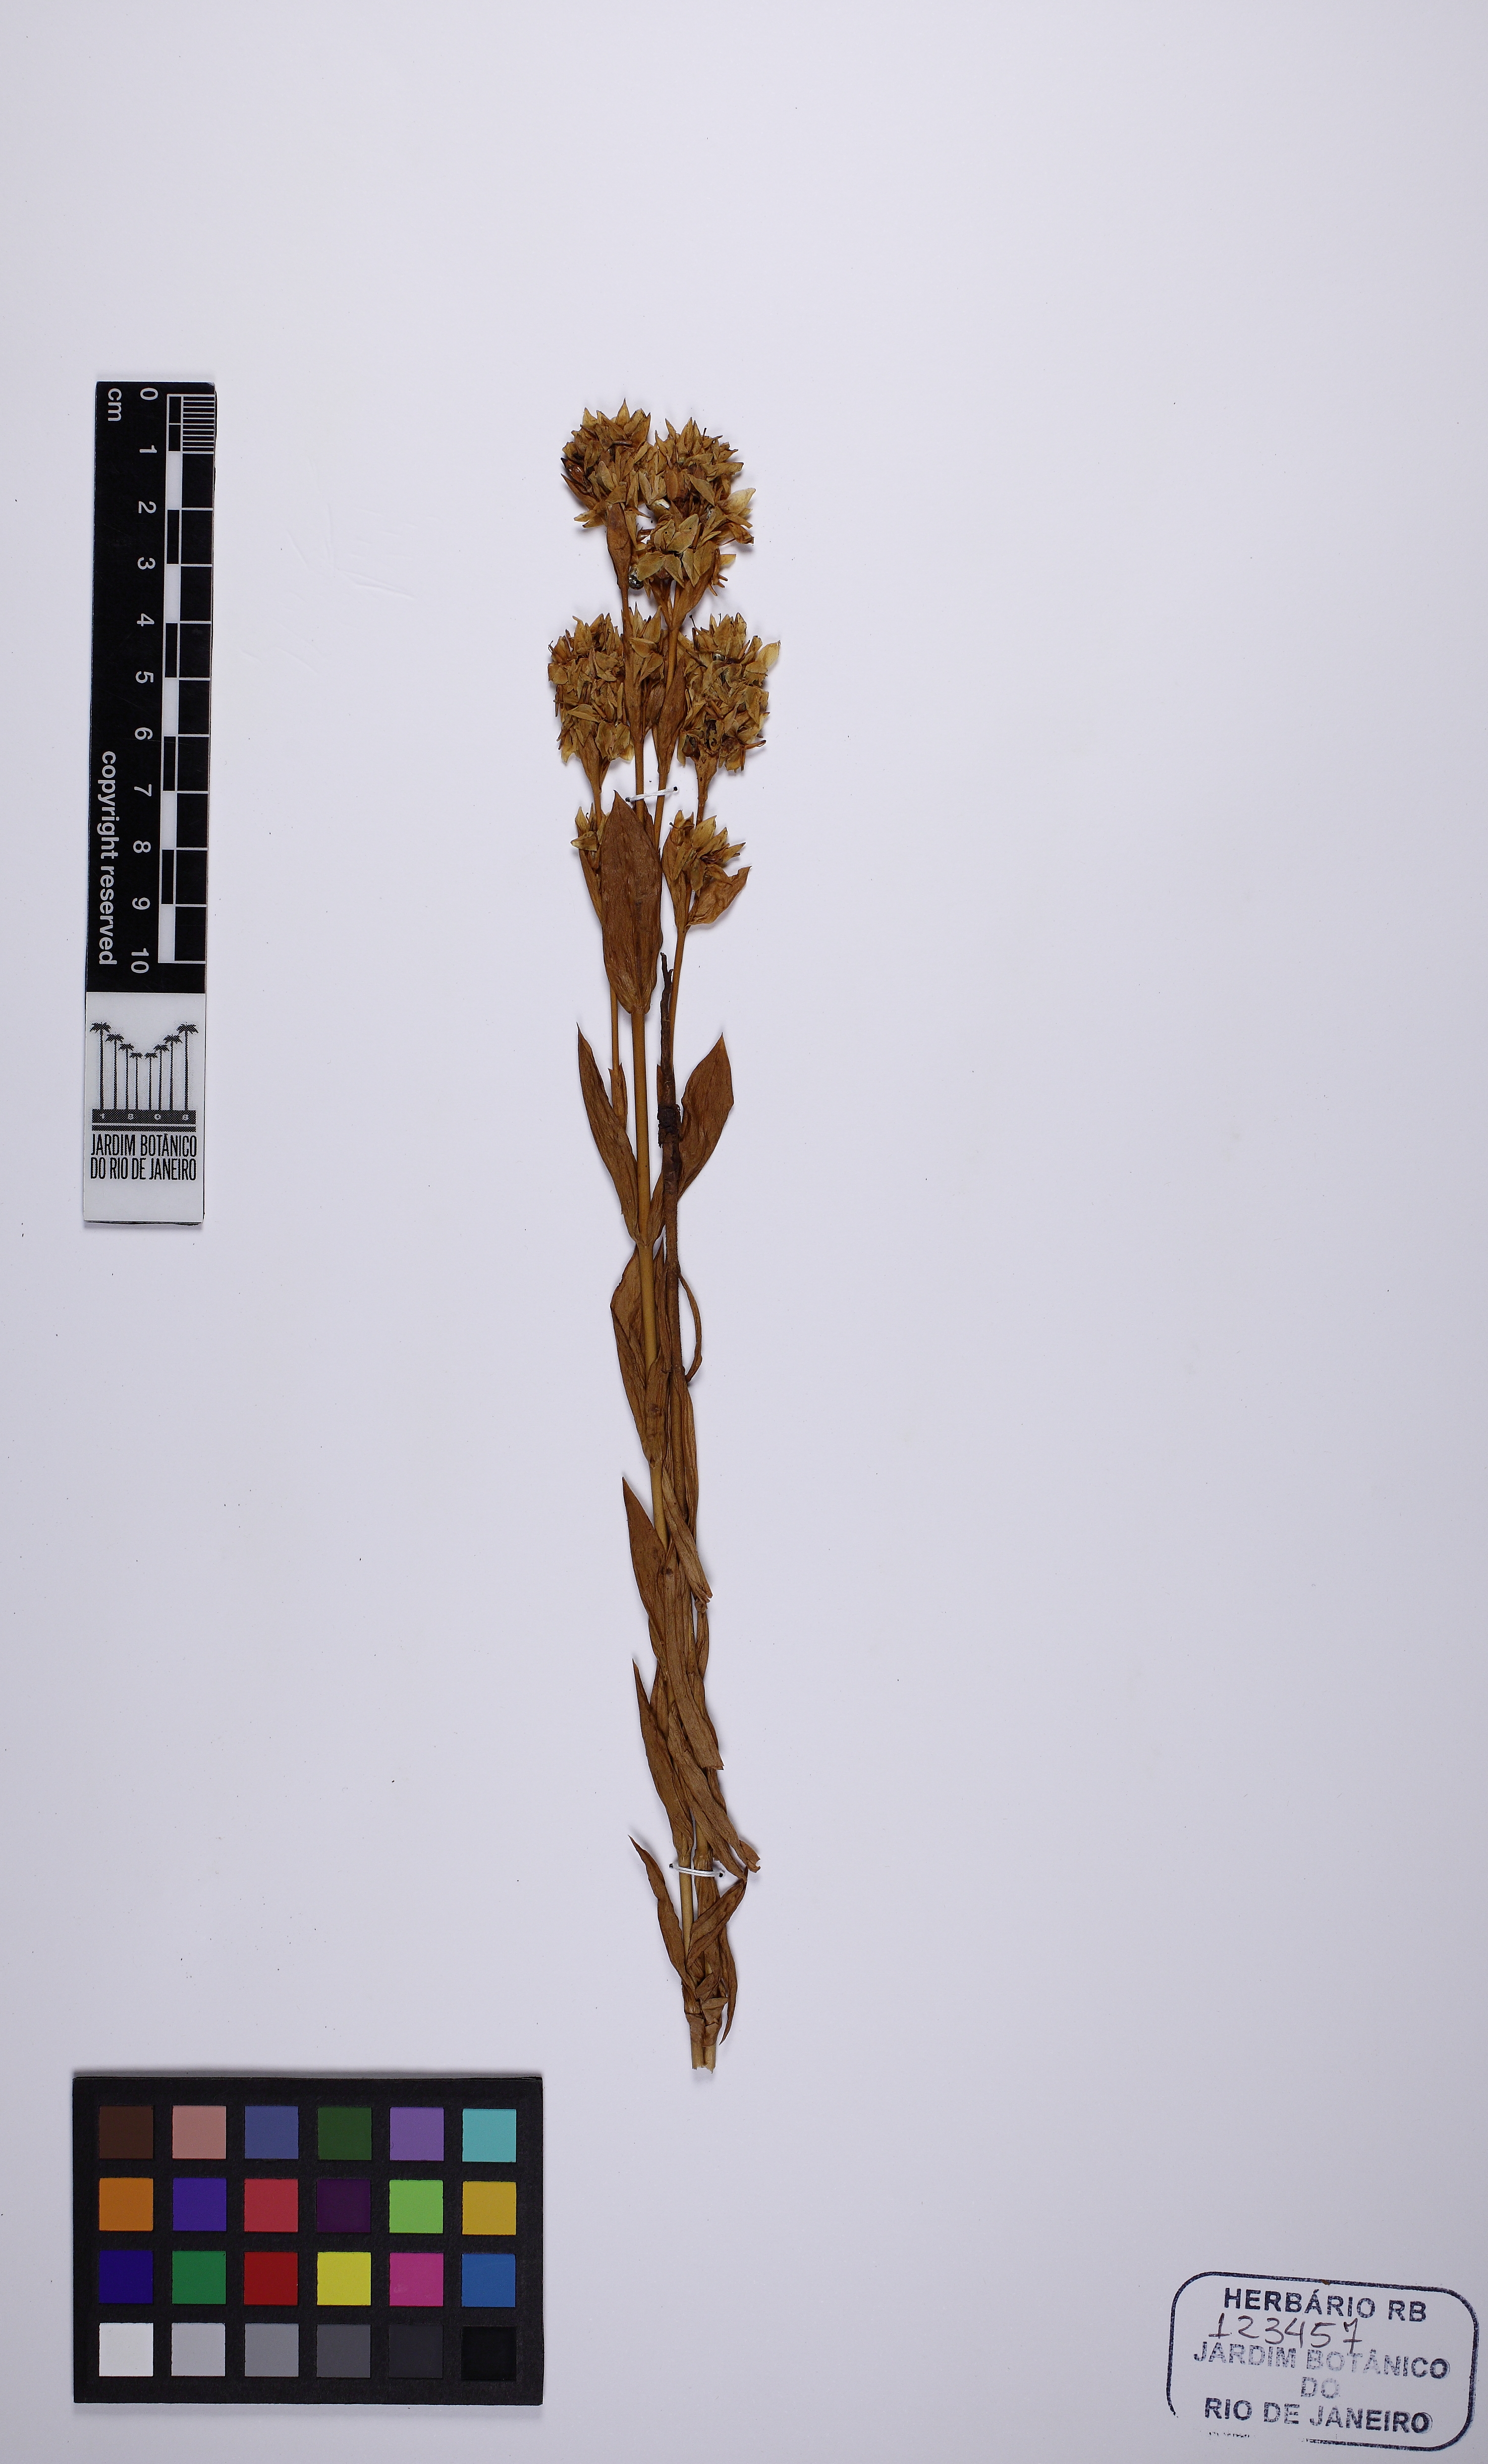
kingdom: Plantae
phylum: Tracheophyta
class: Magnoliopsida
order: Gentianales
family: Gentianaceae
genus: Deianira
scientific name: Deianira chiquitana
